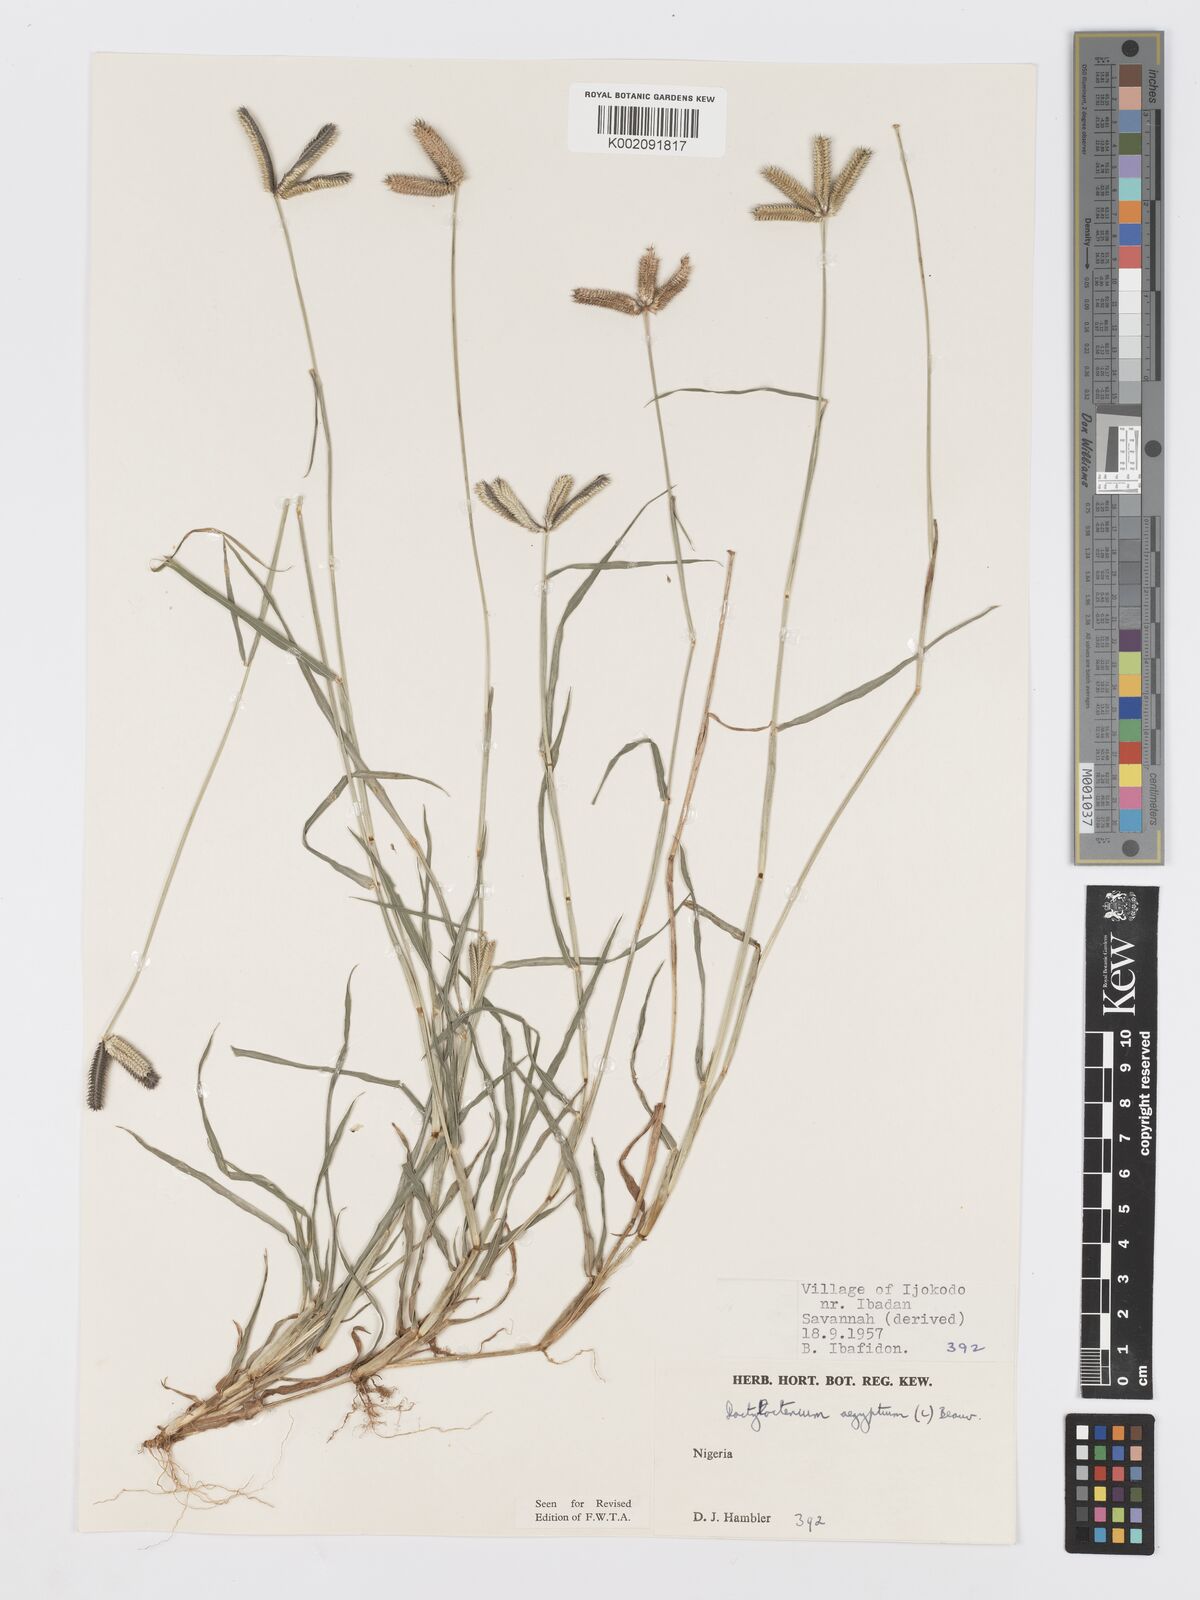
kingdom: Plantae
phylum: Tracheophyta
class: Liliopsida
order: Poales
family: Poaceae
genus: Dactyloctenium
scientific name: Dactyloctenium aegyptium
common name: Egyptian grass
